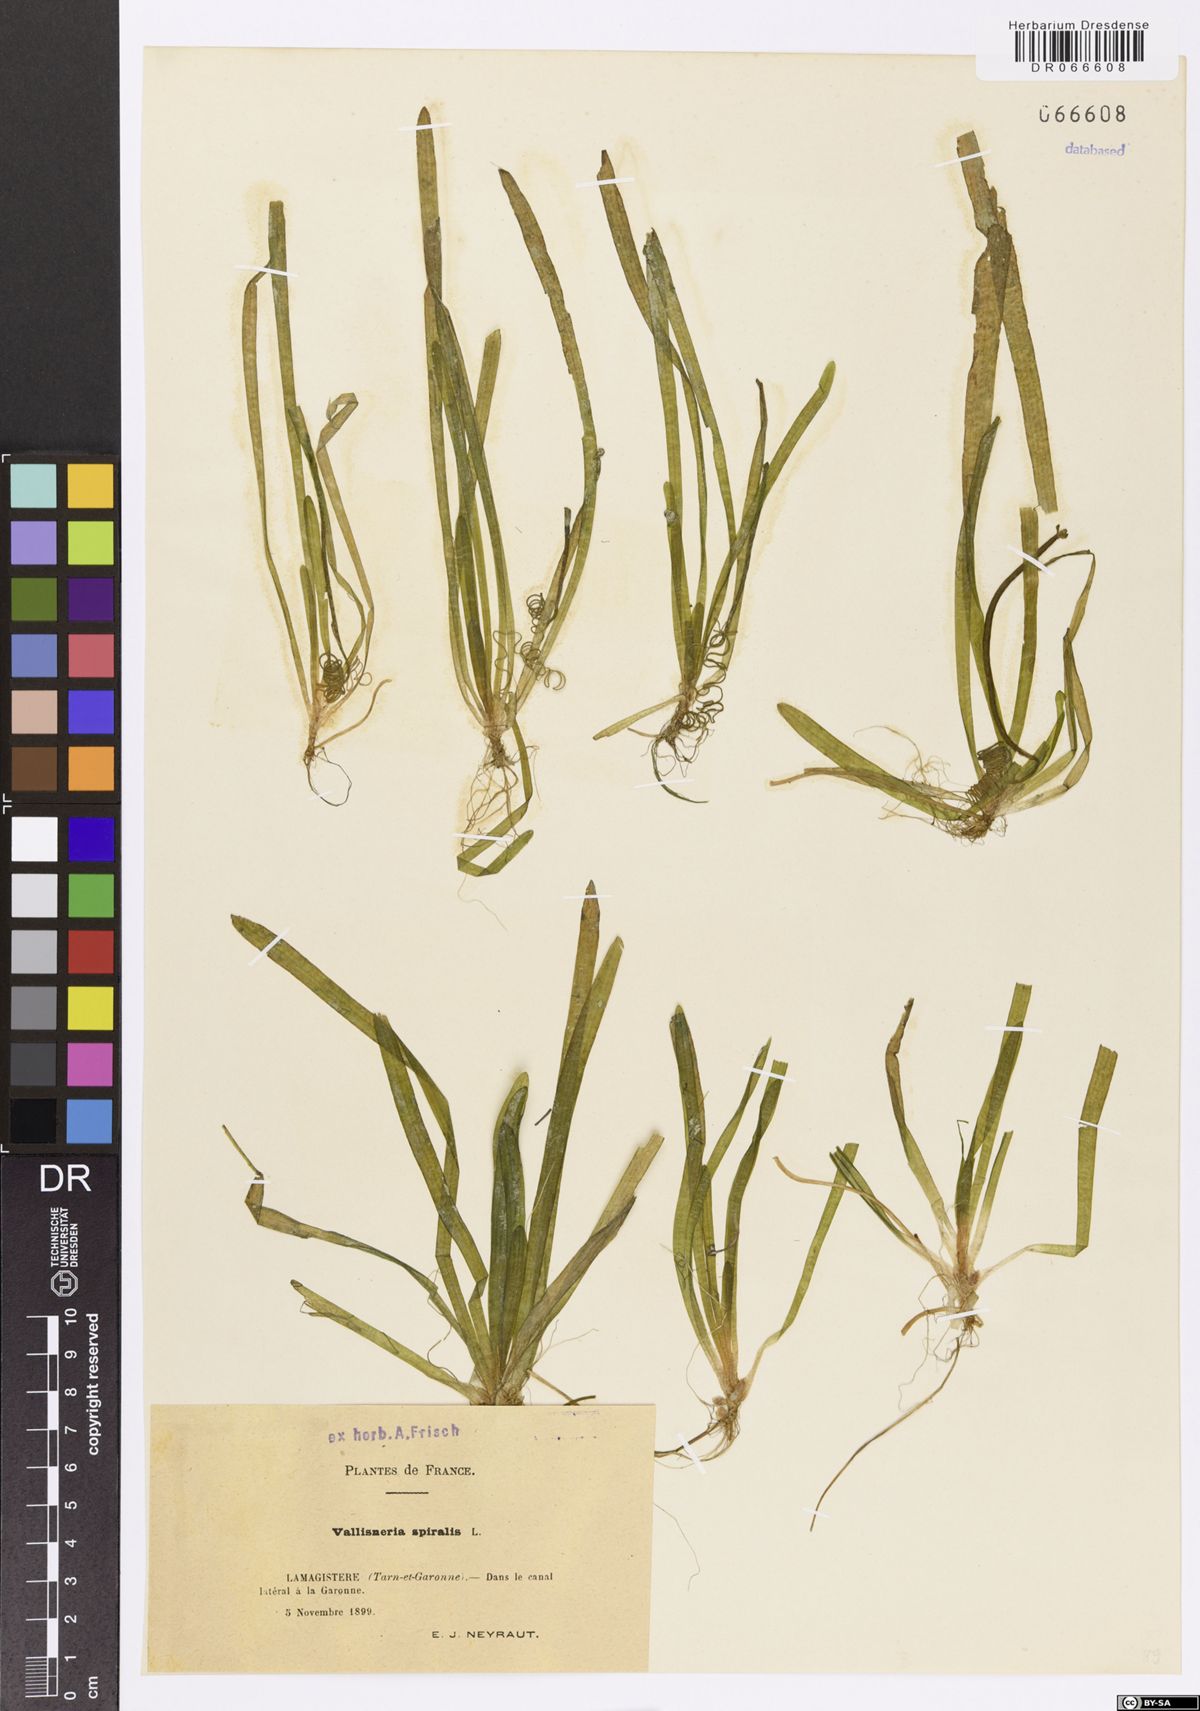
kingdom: Plantae
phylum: Tracheophyta
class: Liliopsida
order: Alismatales
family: Hydrocharitaceae
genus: Vallisneria
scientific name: Vallisneria spiralis
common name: Tapegrass
